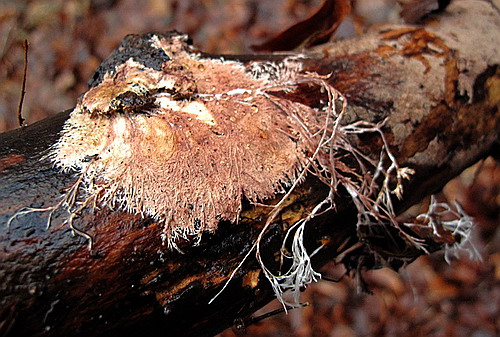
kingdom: Fungi
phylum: Basidiomycota
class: Agaricomycetes
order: Polyporales
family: Steccherinaceae
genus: Steccherinum
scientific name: Steccherinum fimbriatum
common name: trådet skønpig
